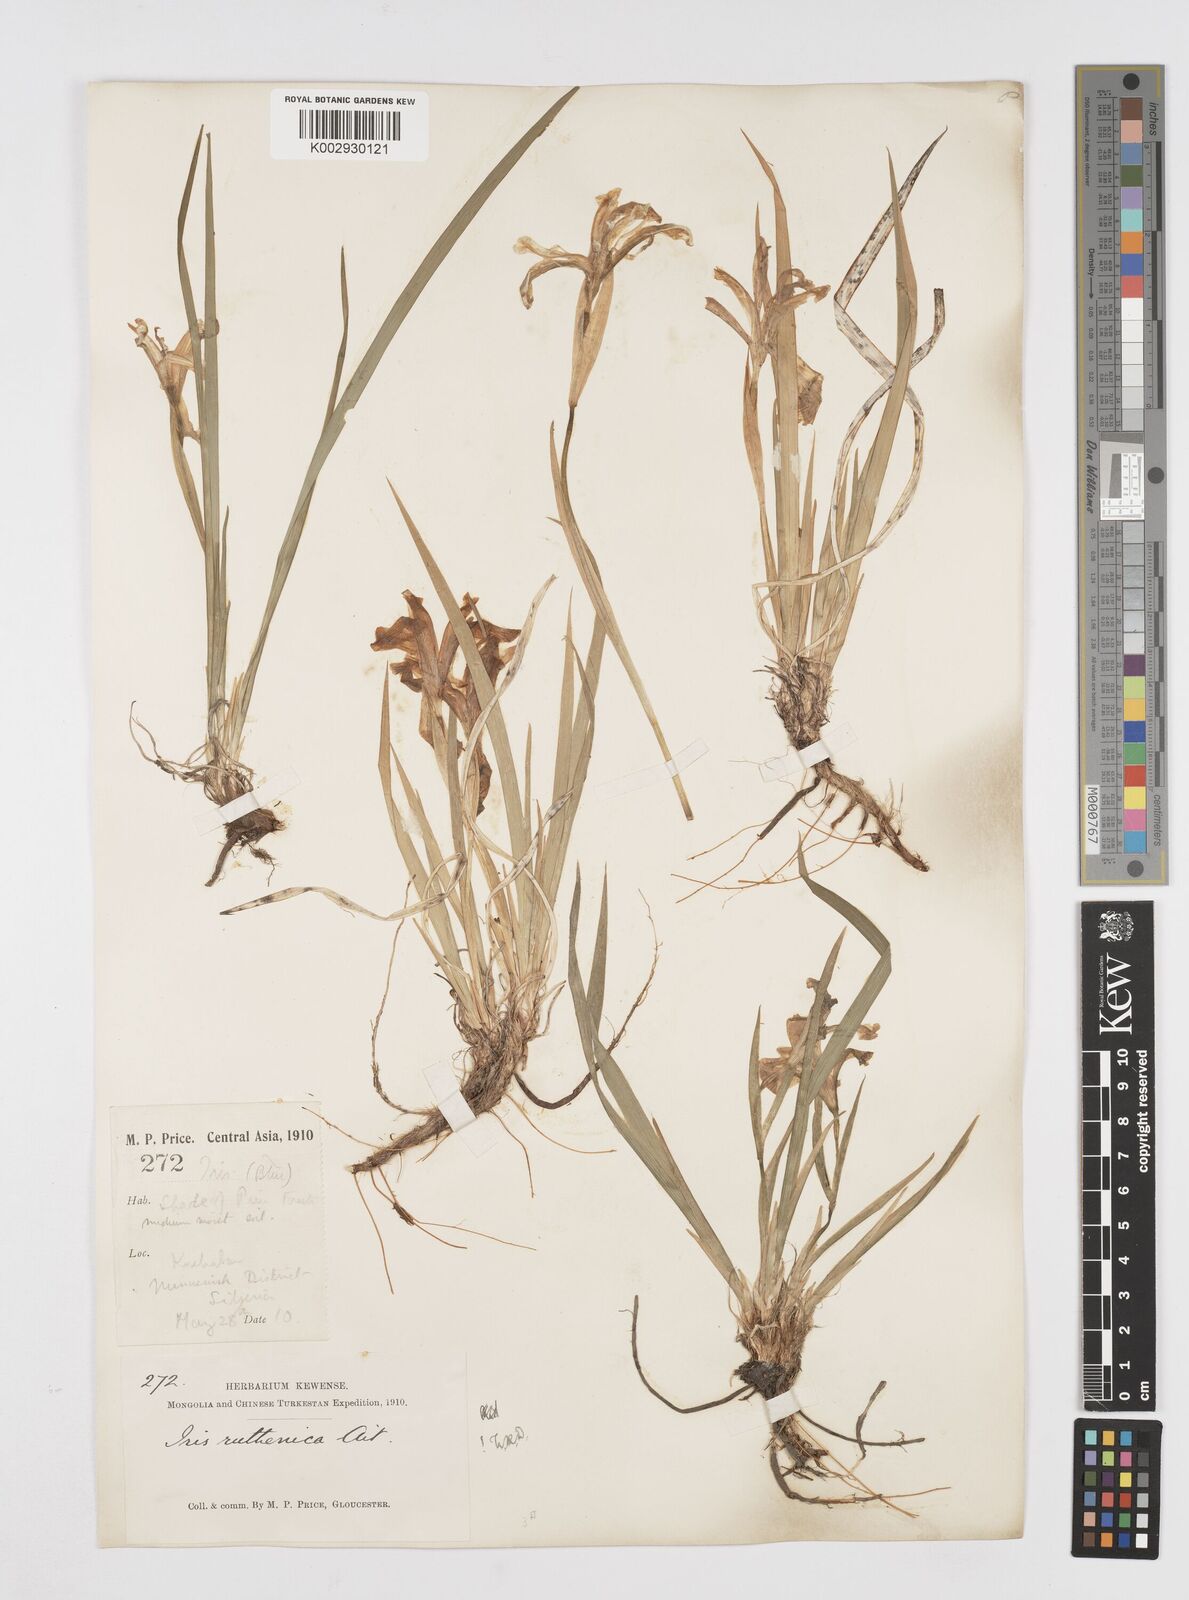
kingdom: Plantae
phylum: Tracheophyta
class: Liliopsida
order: Asparagales
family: Iridaceae
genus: Iris
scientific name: Iris ruthenica
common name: Purple-bract iris
